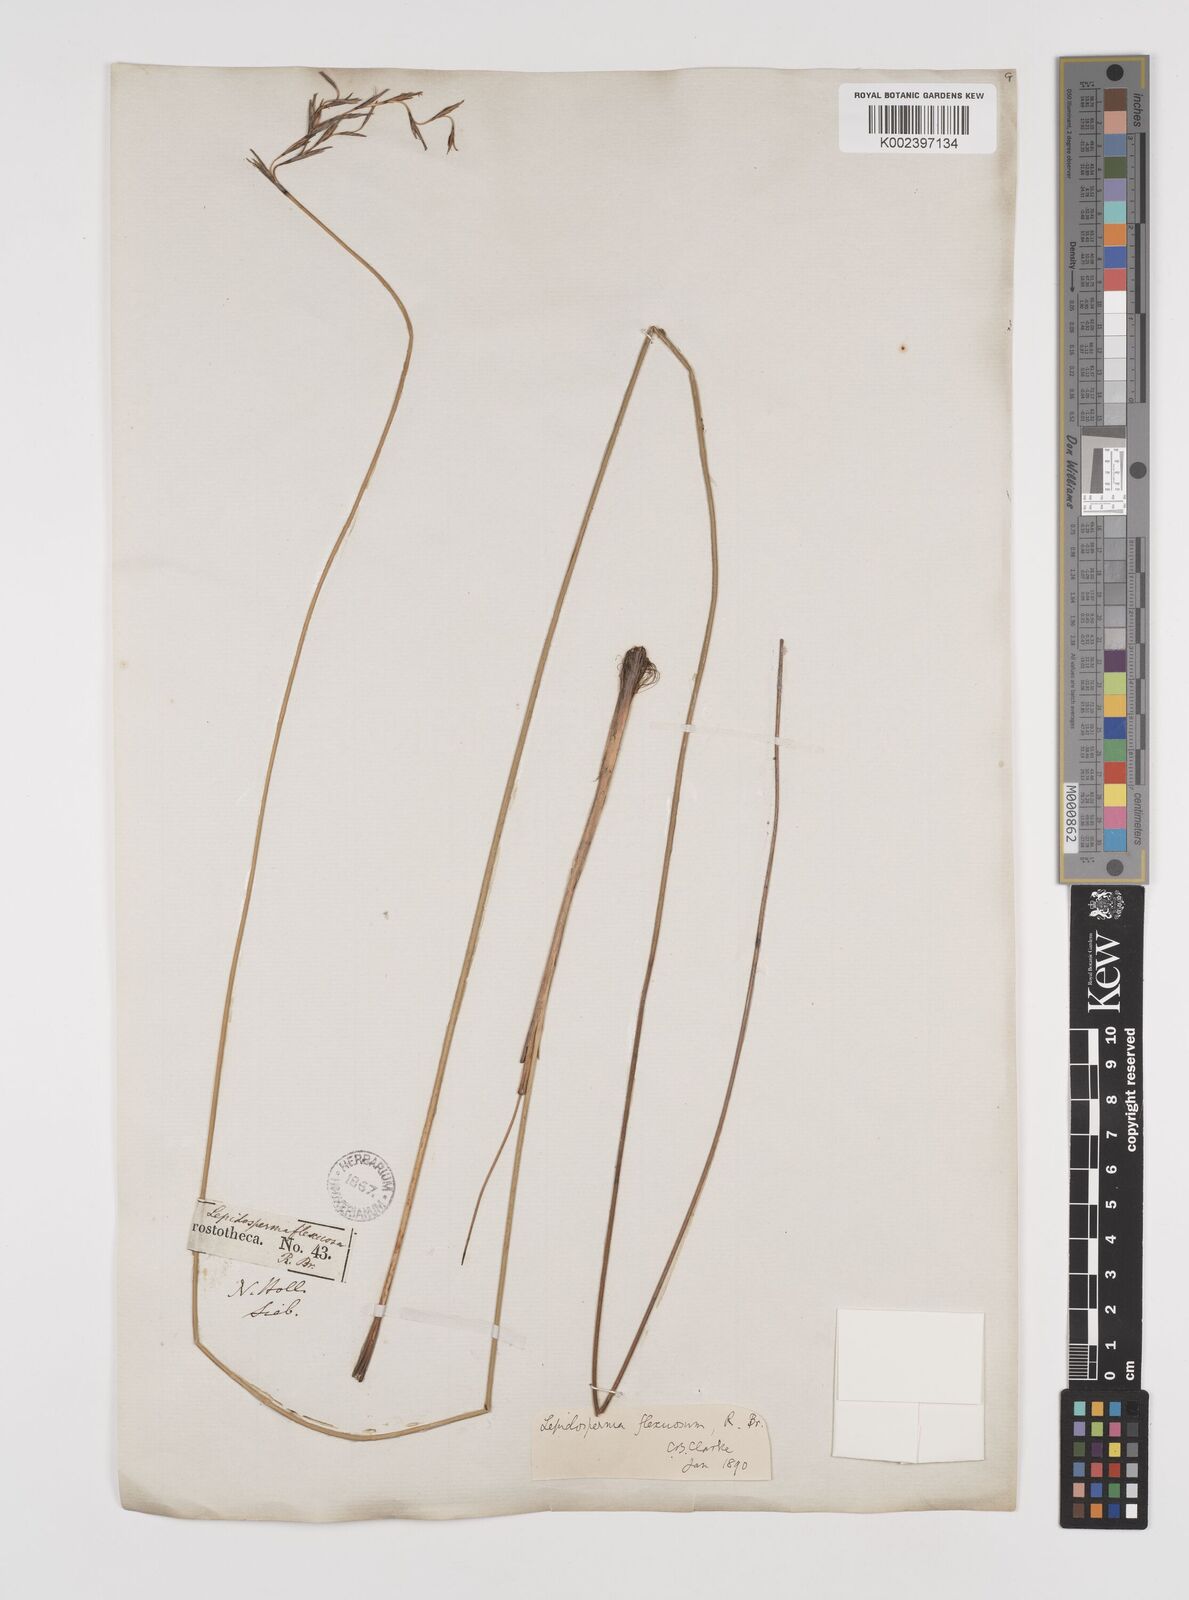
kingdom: Plantae
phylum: Tracheophyta
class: Liliopsida
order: Poales
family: Cyperaceae
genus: Lepidosperma
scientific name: Lepidosperma flexuosum
